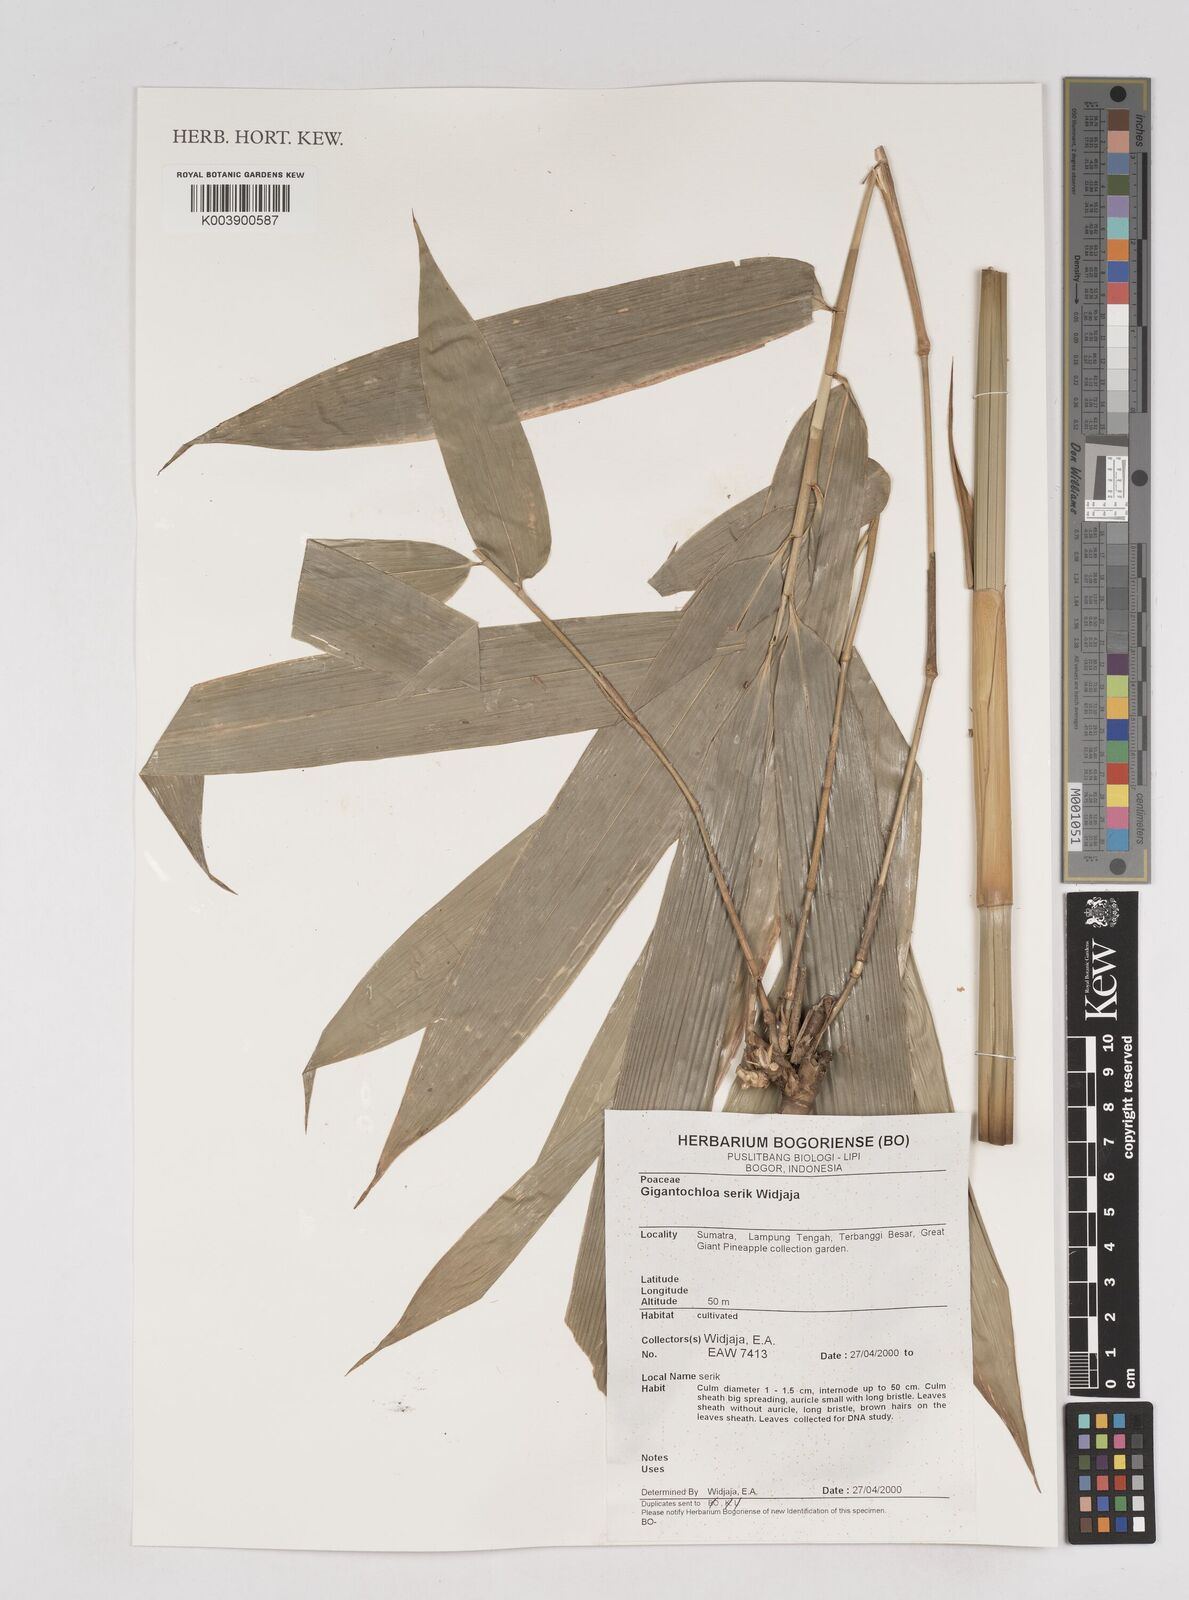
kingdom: Plantae
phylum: Tracheophyta
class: Liliopsida
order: Poales
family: Poaceae
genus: Gigantochloa
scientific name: Gigantochloa serik
